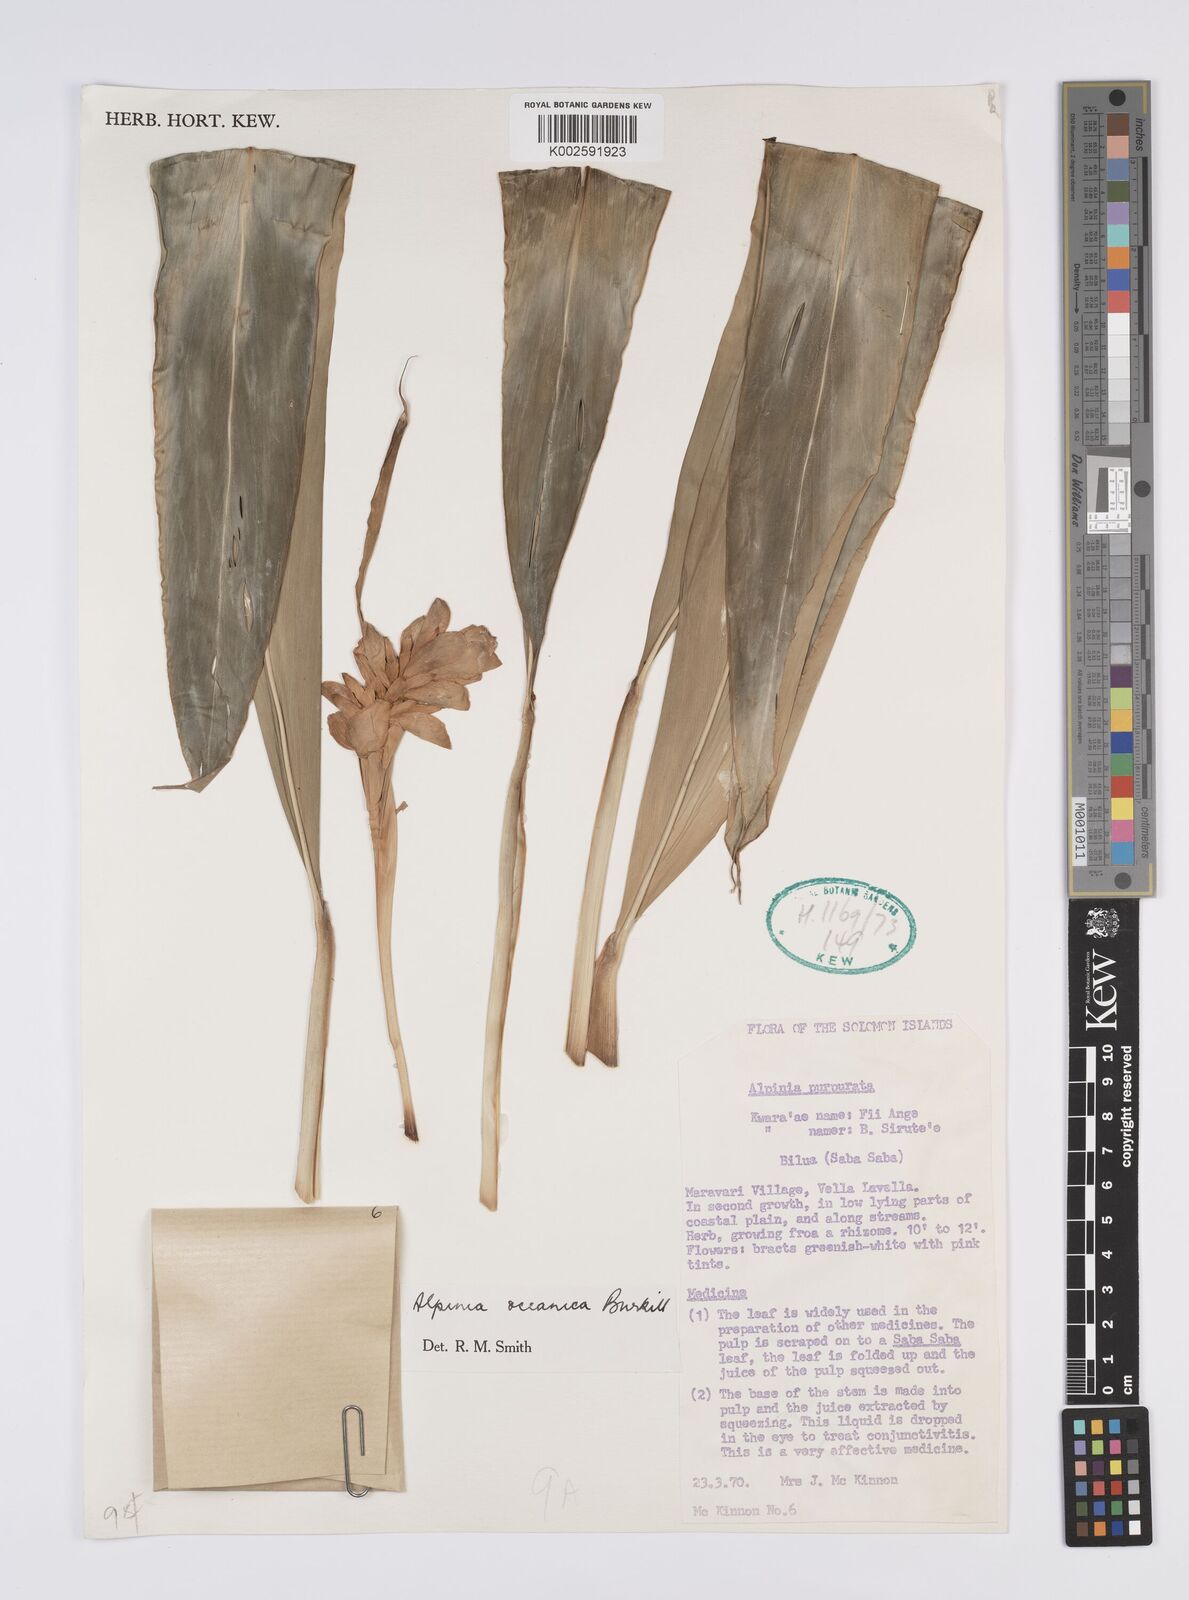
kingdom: Plantae
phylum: Tracheophyta
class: Liliopsida
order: Zingiberales
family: Zingiberaceae
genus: Alpinia
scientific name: Alpinia oceanica
